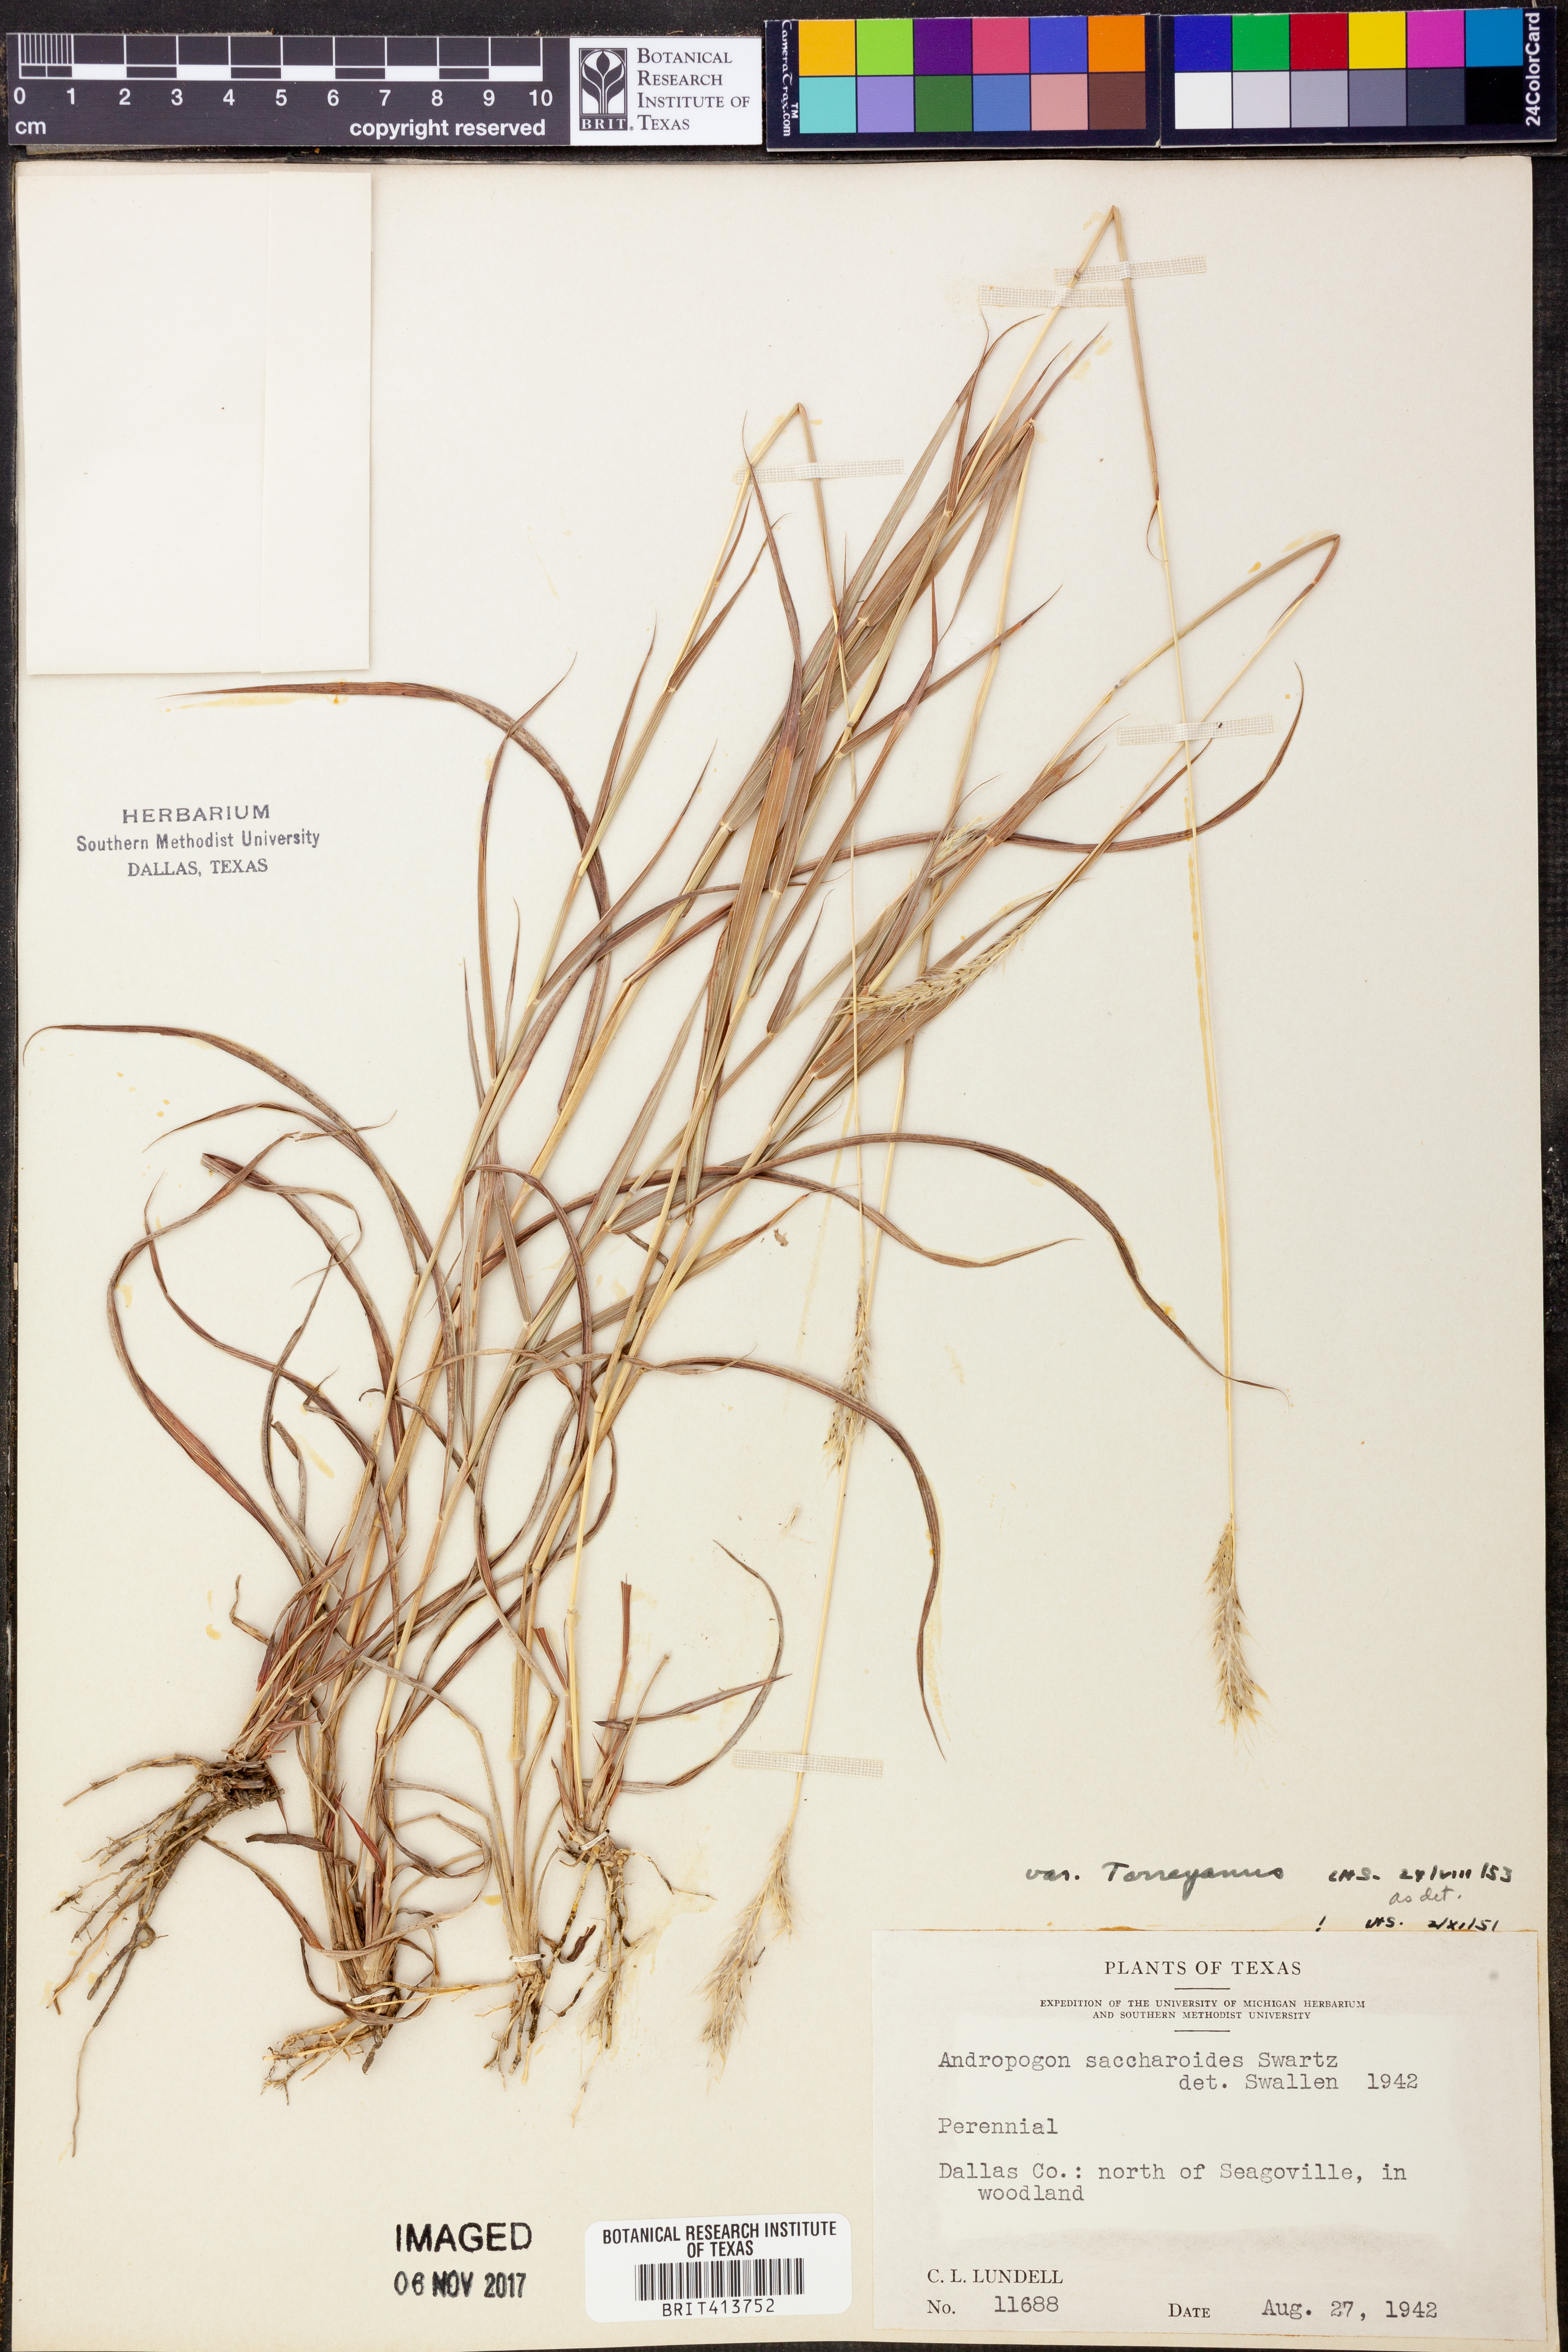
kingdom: Plantae
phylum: Tracheophyta
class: Liliopsida
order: Poales
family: Poaceae
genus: Bothriochloa
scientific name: Bothriochloa torreyana
